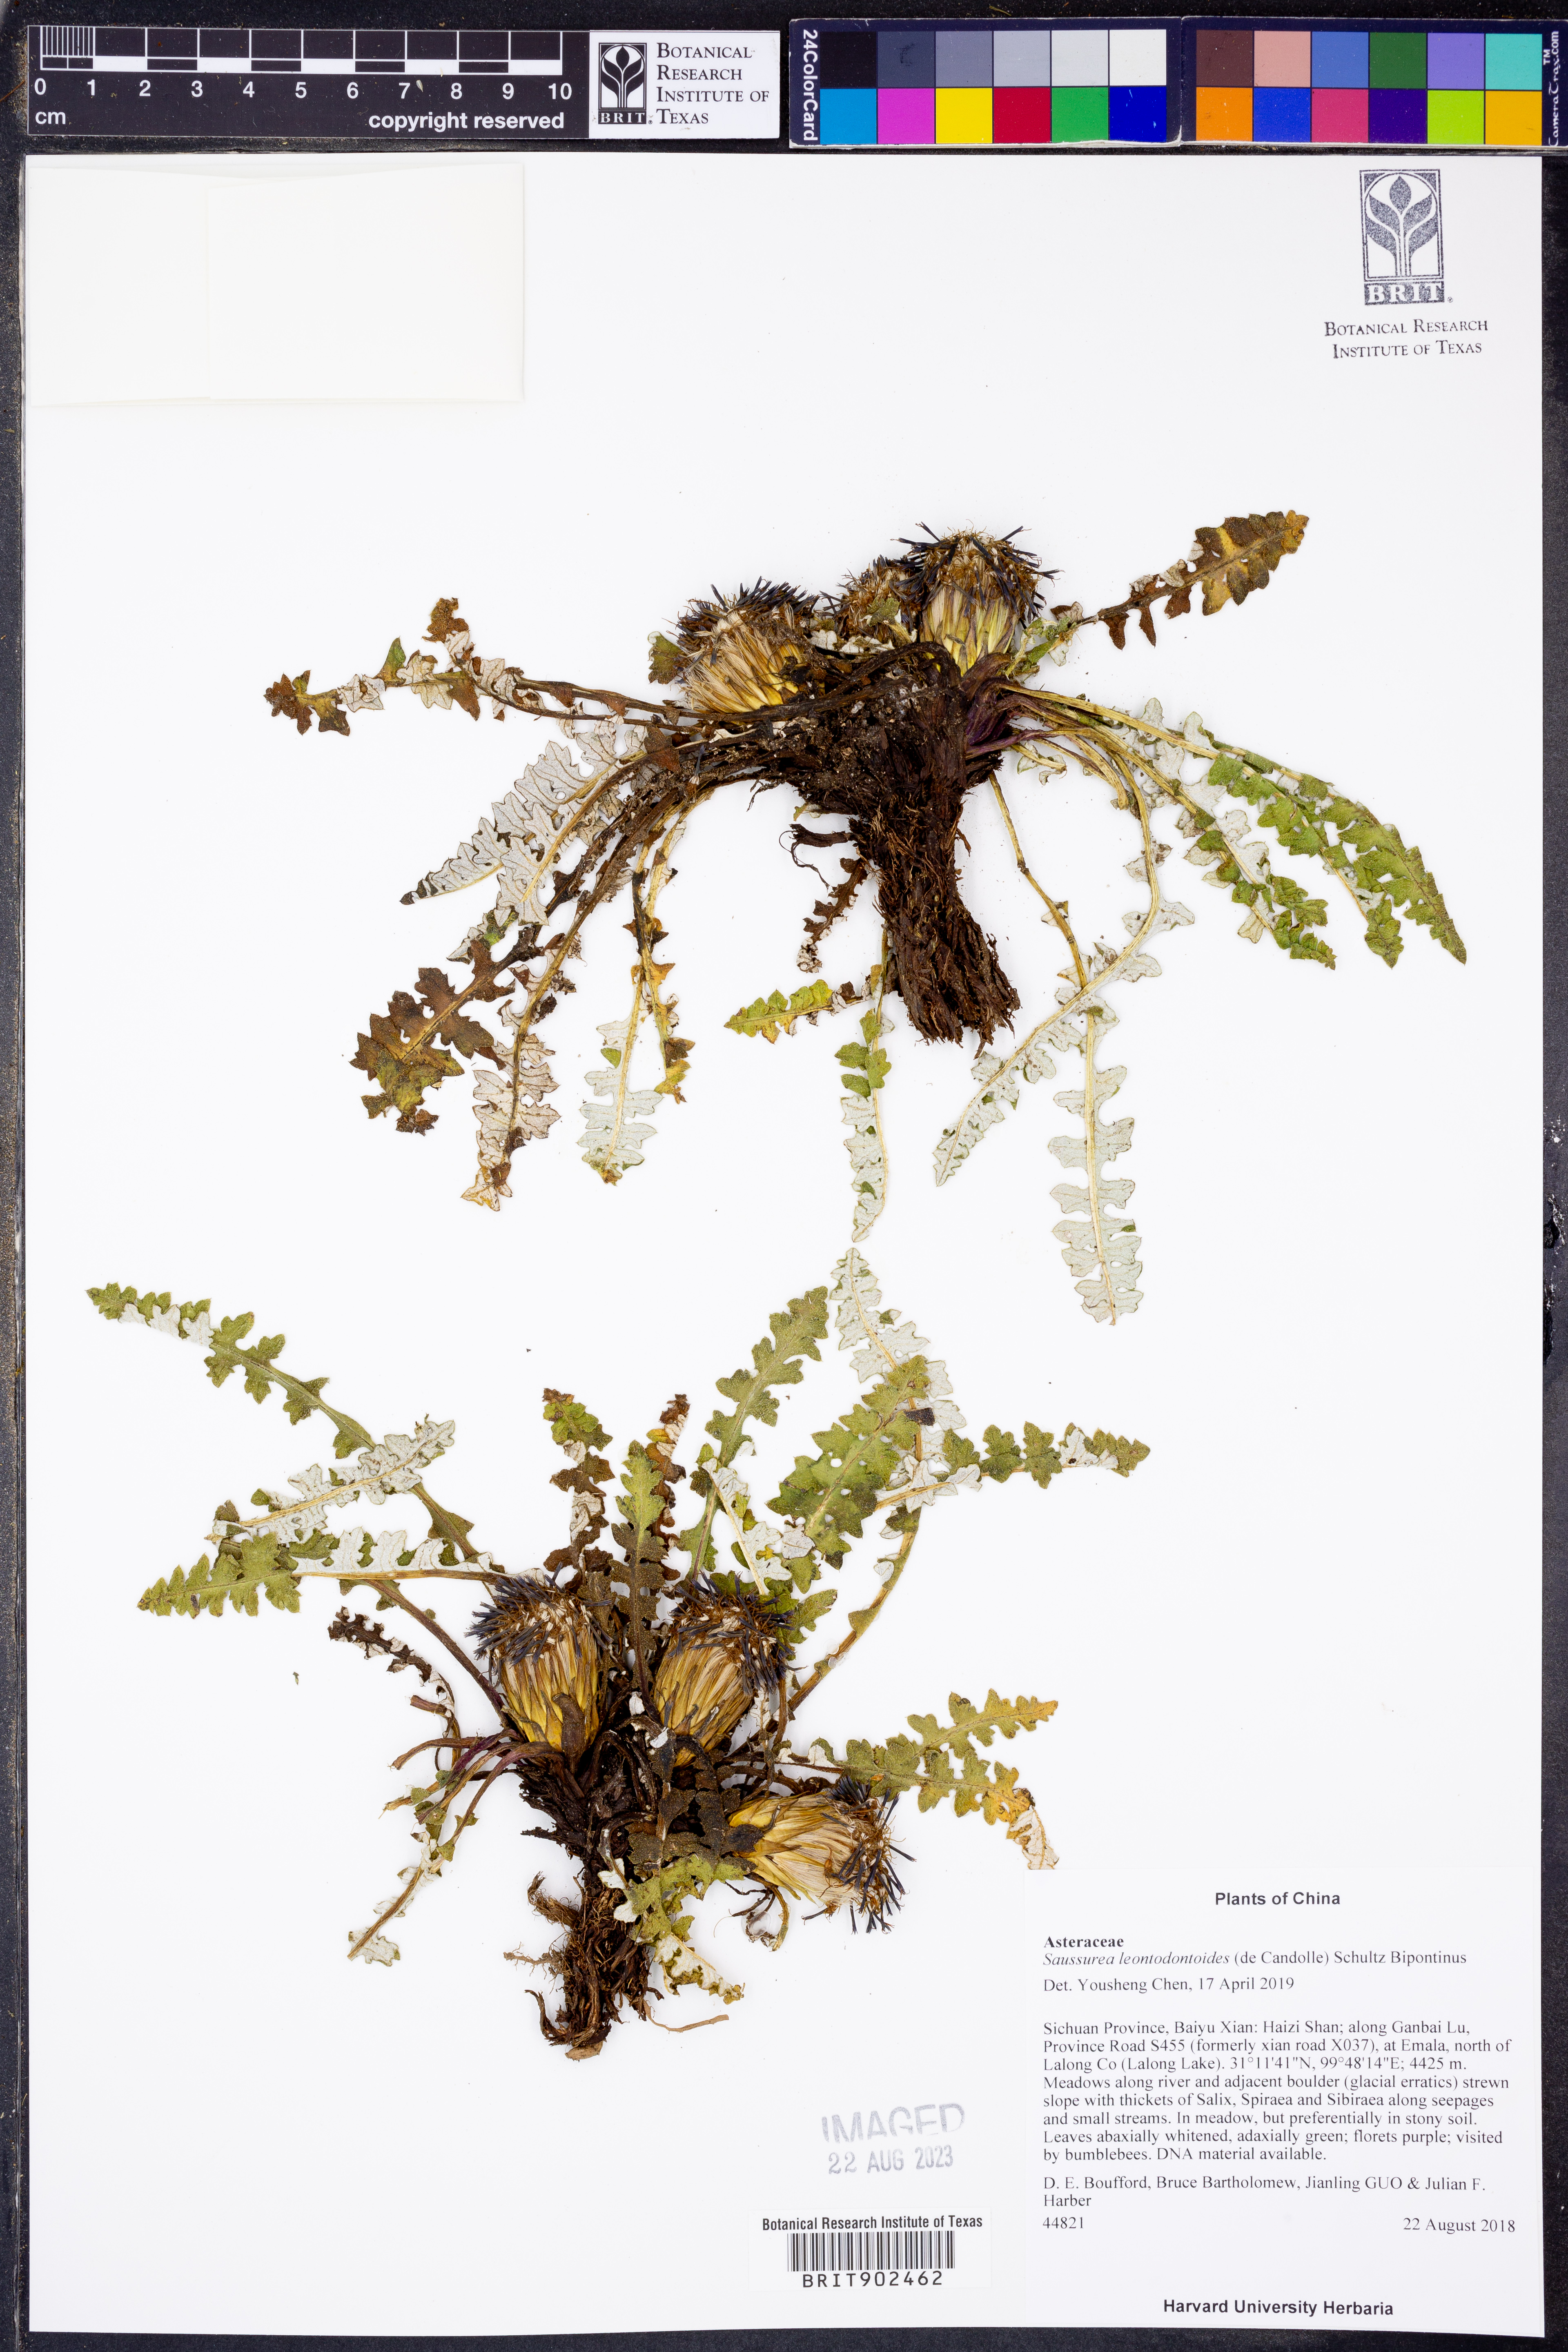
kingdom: Plantae
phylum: Tracheophyta
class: Magnoliopsida
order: Asterales
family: Asteraceae
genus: Saussurea
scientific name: Saussurea leontodontoides
